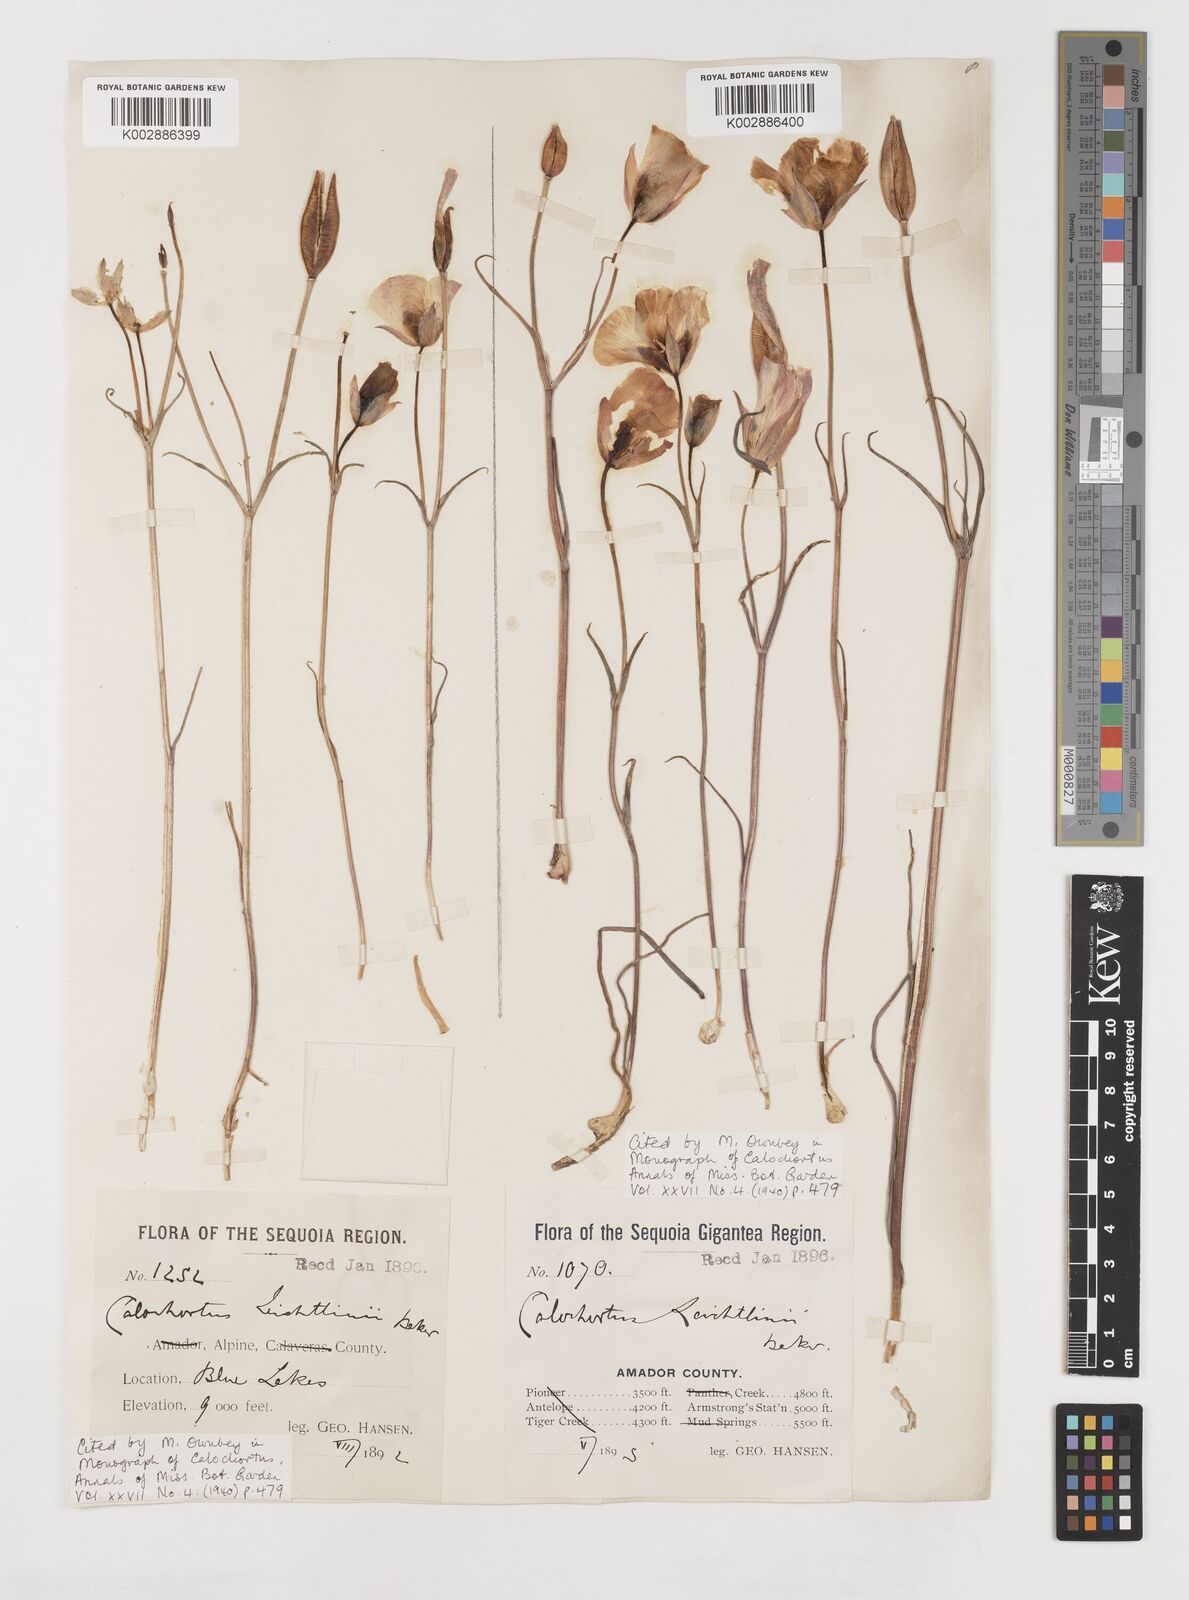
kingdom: Plantae
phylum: Tracheophyta
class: Liliopsida
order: Liliales
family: Liliaceae
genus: Calochortus
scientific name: Calochortus leichtlinii
